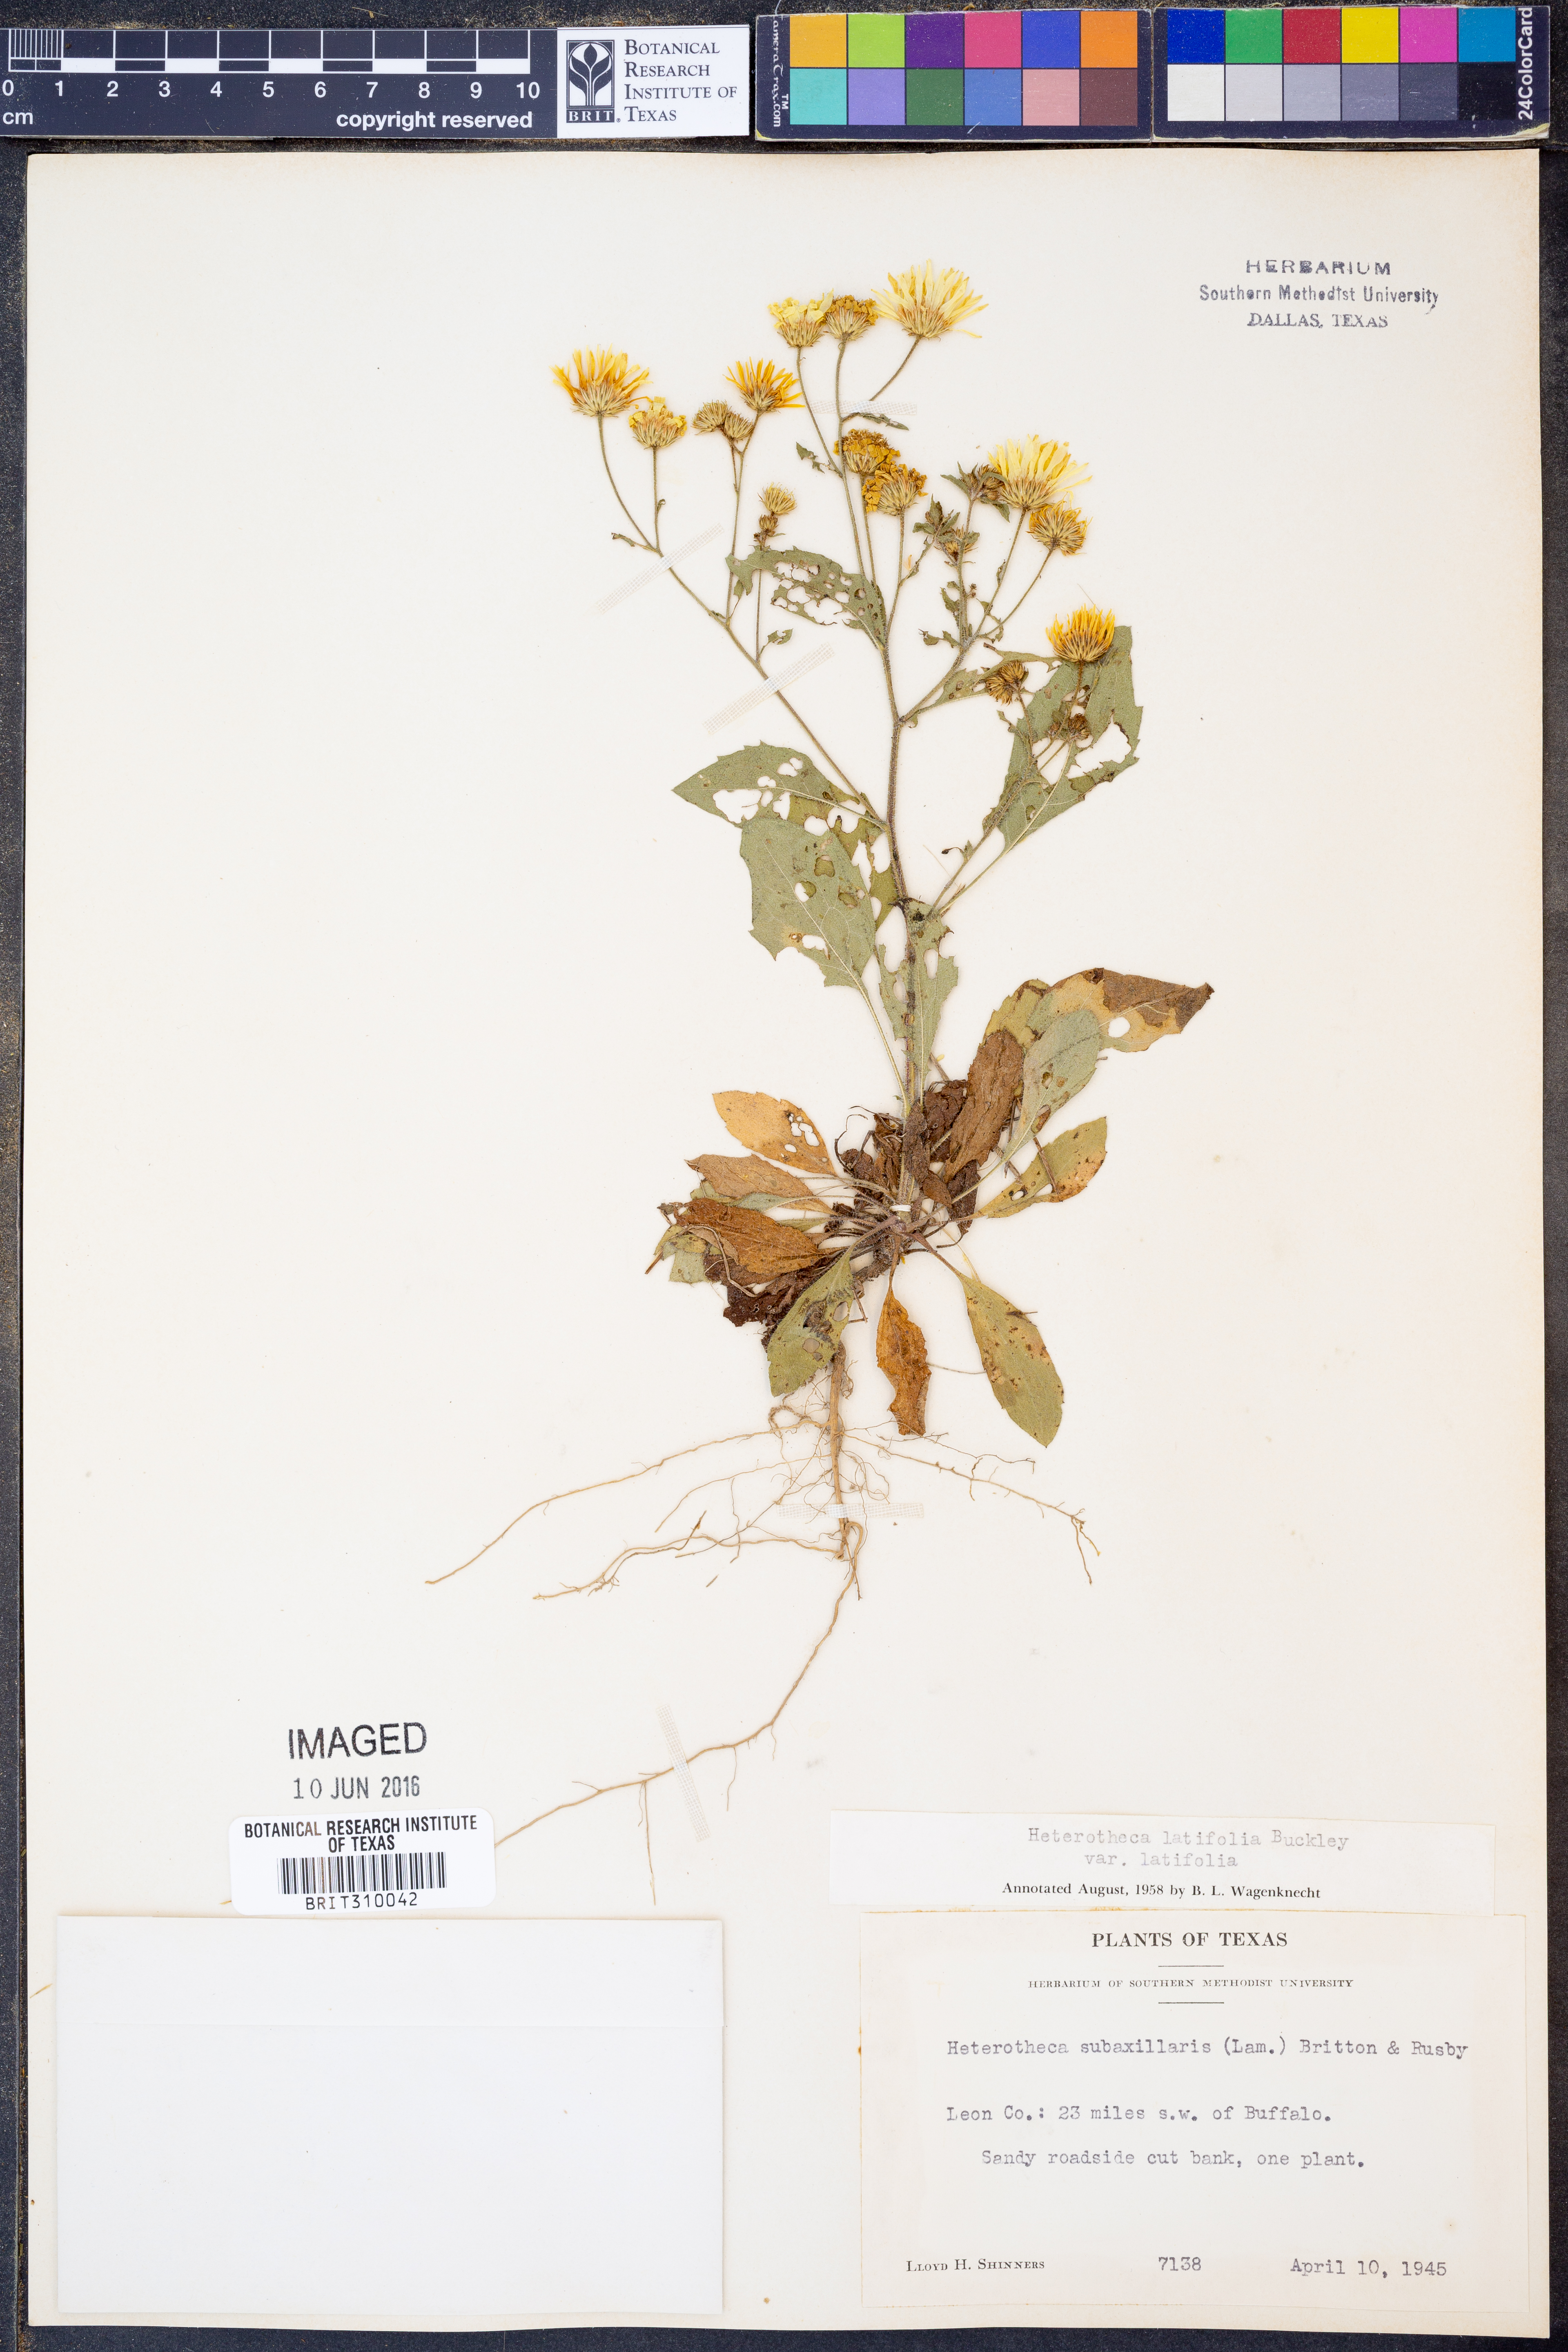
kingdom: Plantae
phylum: Tracheophyta
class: Magnoliopsida
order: Asterales
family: Asteraceae
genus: Heterotheca
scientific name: Heterotheca subaxillaris
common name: Camphorweed
